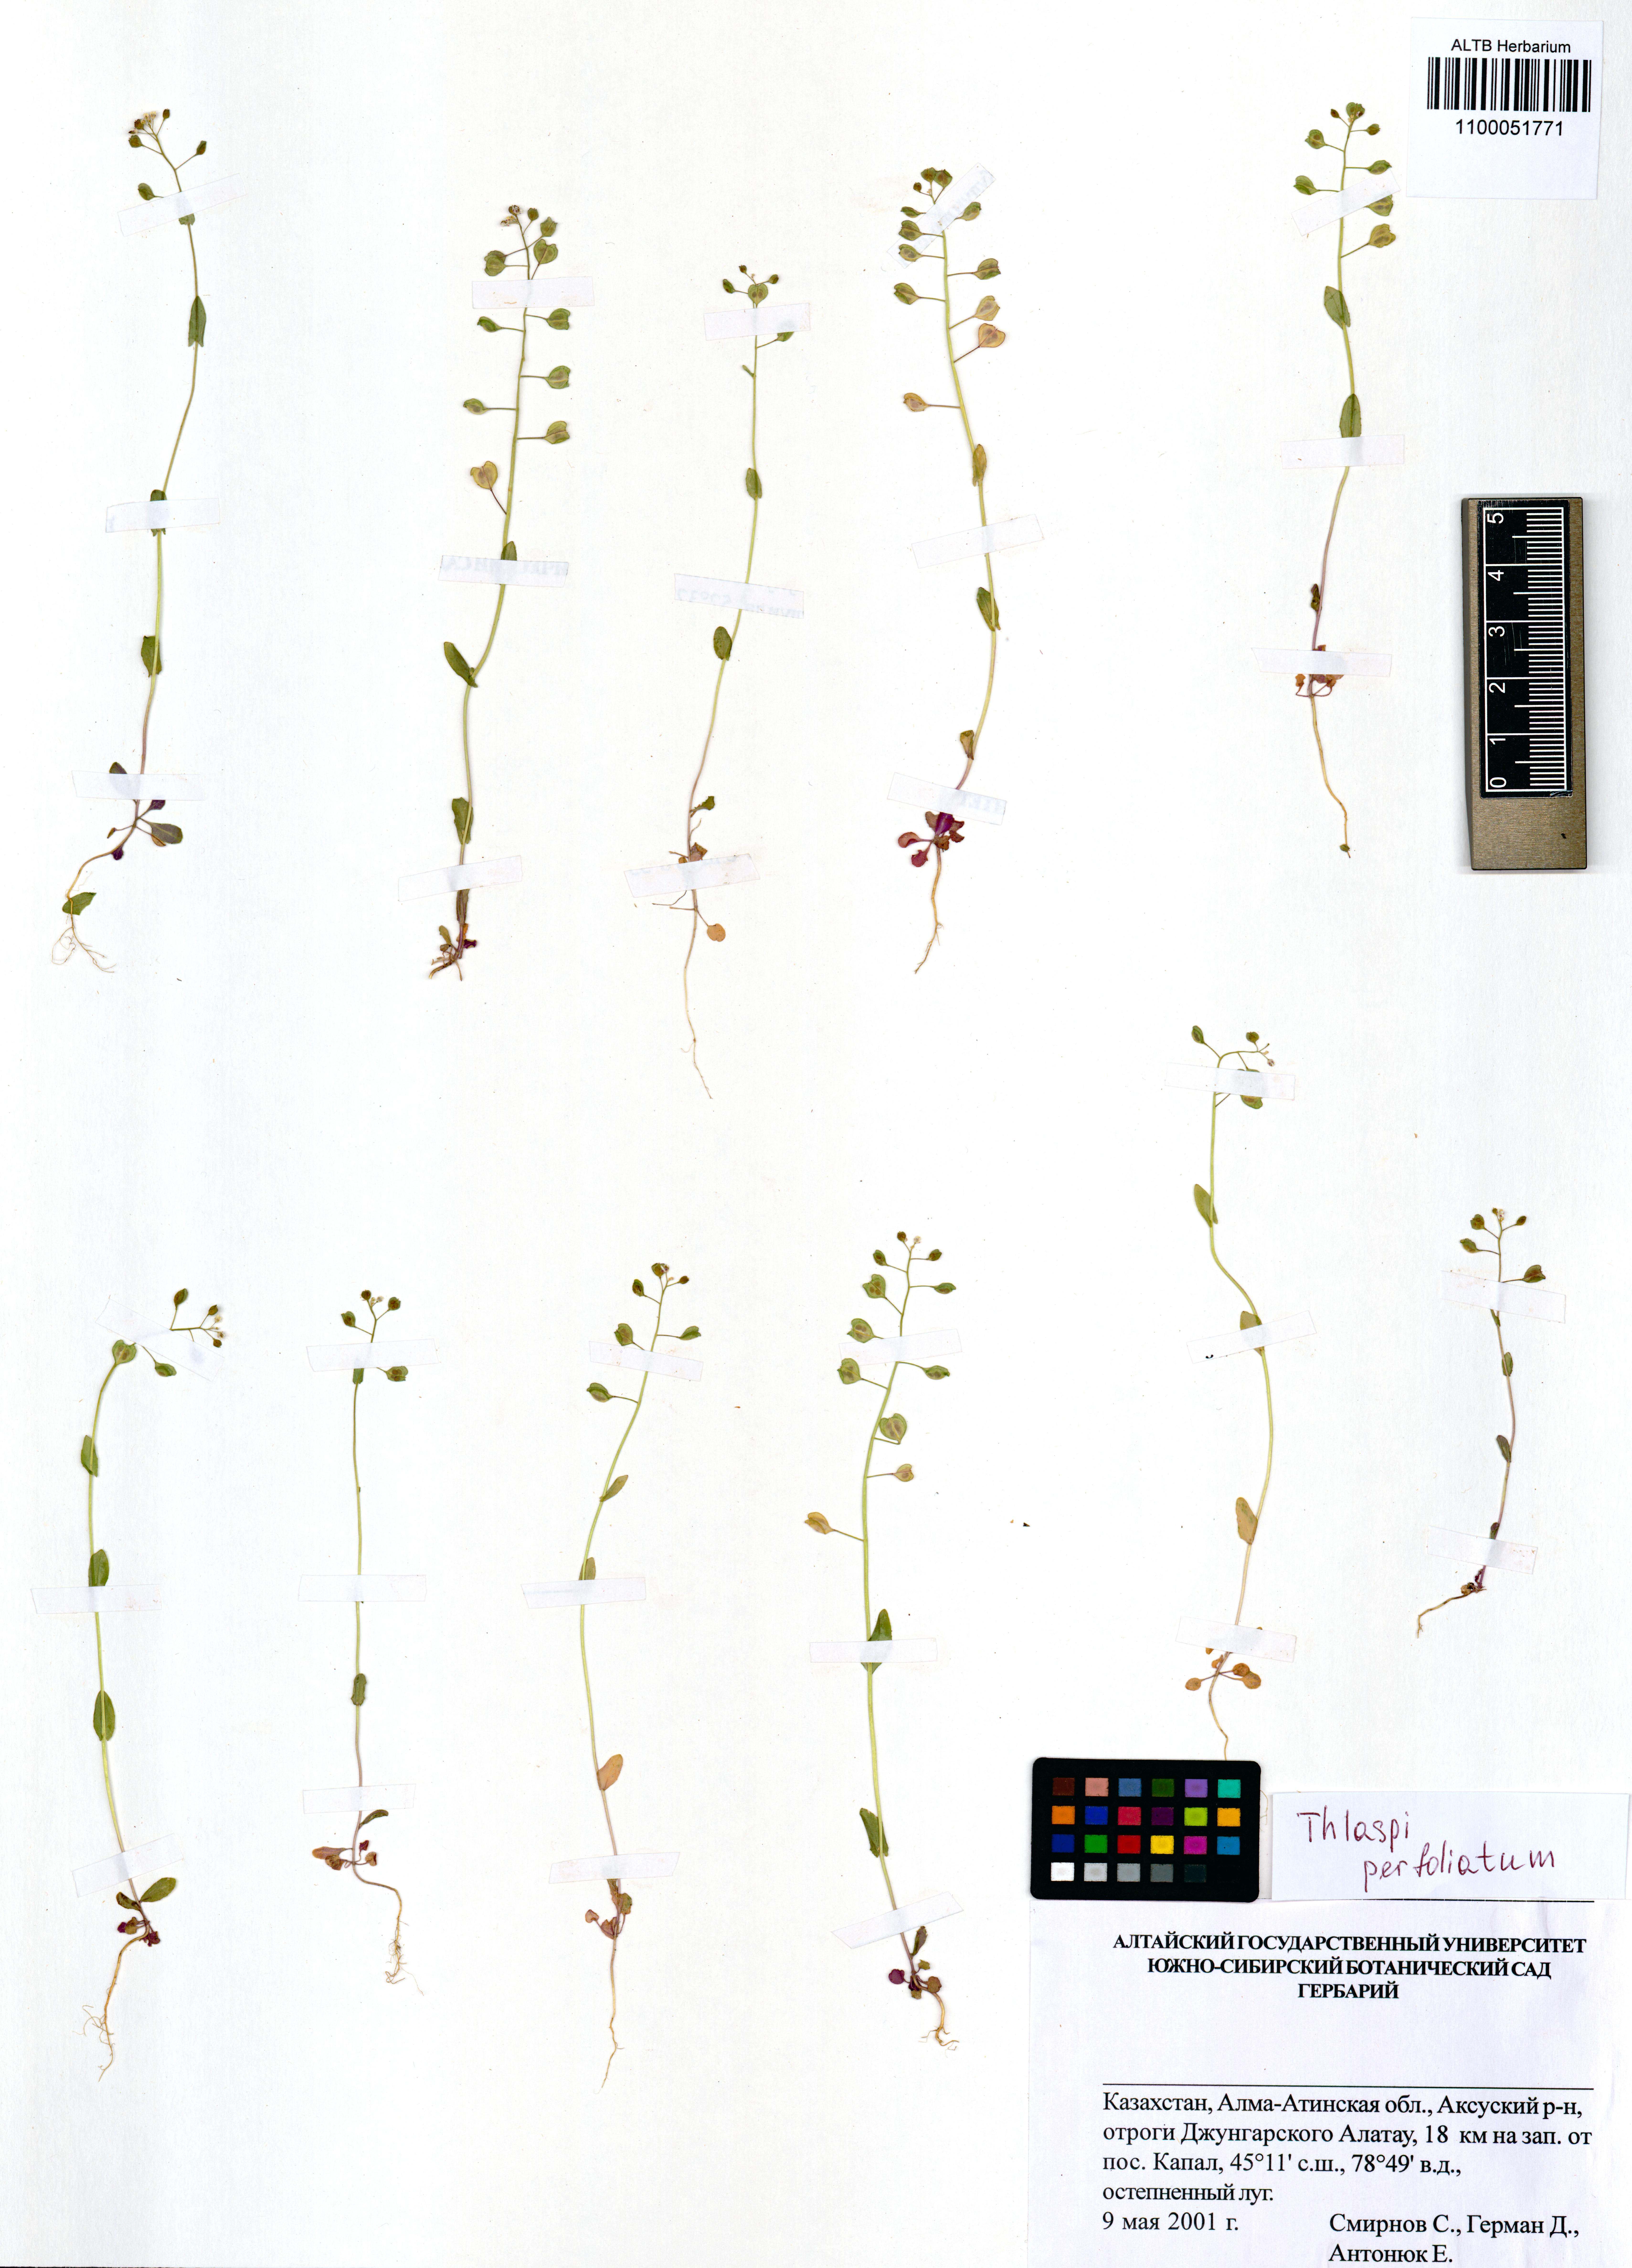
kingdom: Plantae
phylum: Tracheophyta
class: Magnoliopsida
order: Brassicales
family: Brassicaceae
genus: Noccaea
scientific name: Noccaea perfoliata
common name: Perfoliate pennycress
